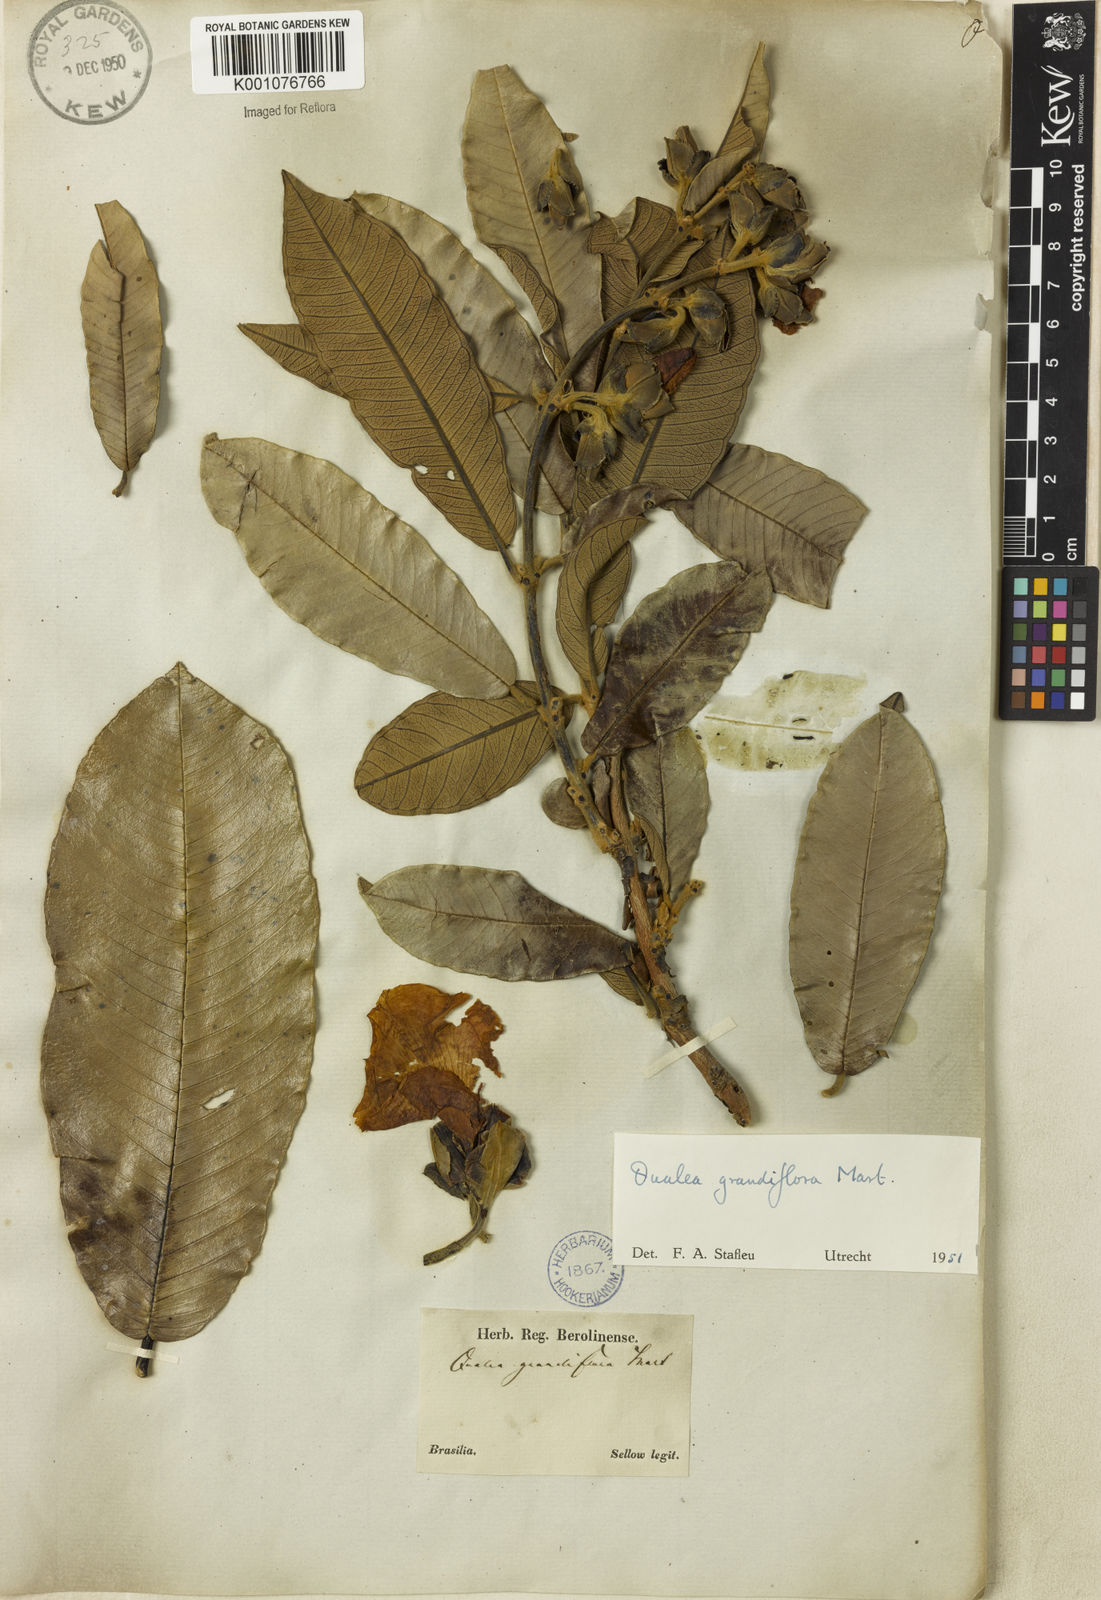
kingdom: Plantae
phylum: Tracheophyta
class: Magnoliopsida
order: Myrtales
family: Vochysiaceae
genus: Qualea
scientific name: Qualea grandiflora
